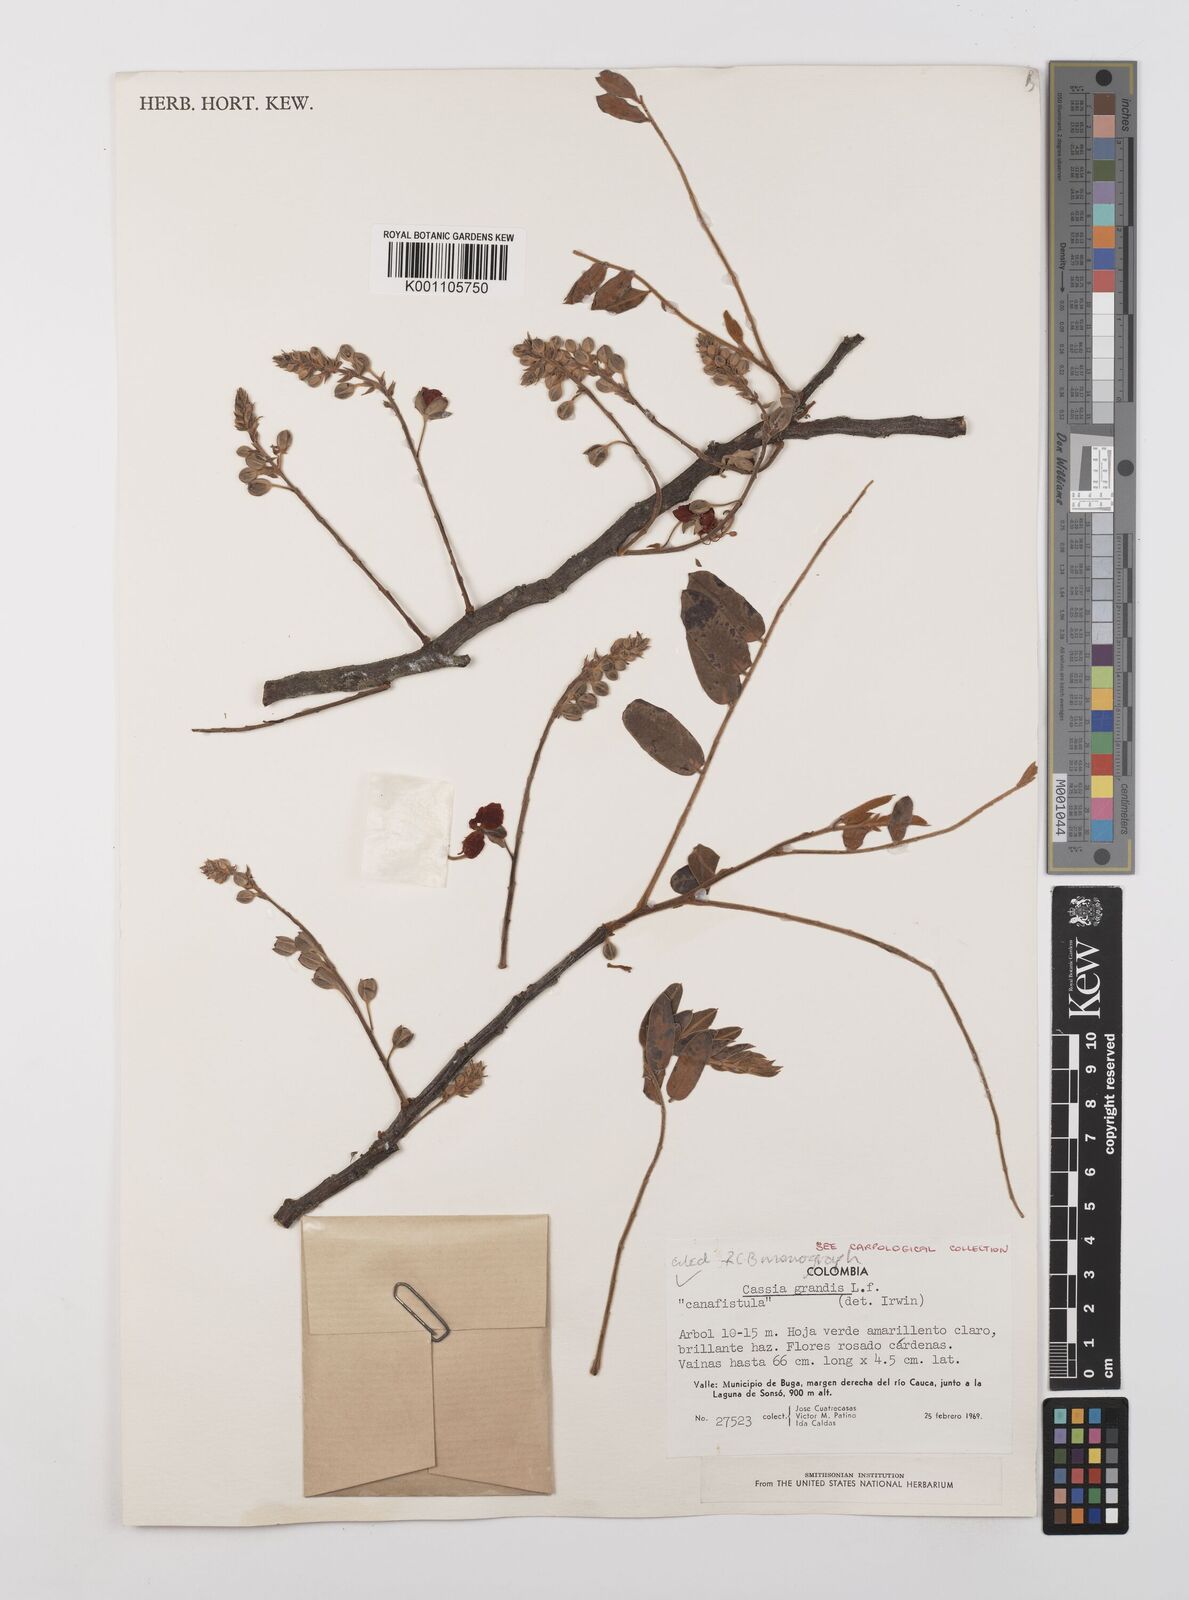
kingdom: Plantae
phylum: Tracheophyta
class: Magnoliopsida
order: Fabales
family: Fabaceae
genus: Cassia
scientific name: Cassia grandis
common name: Appleblossom cassia
